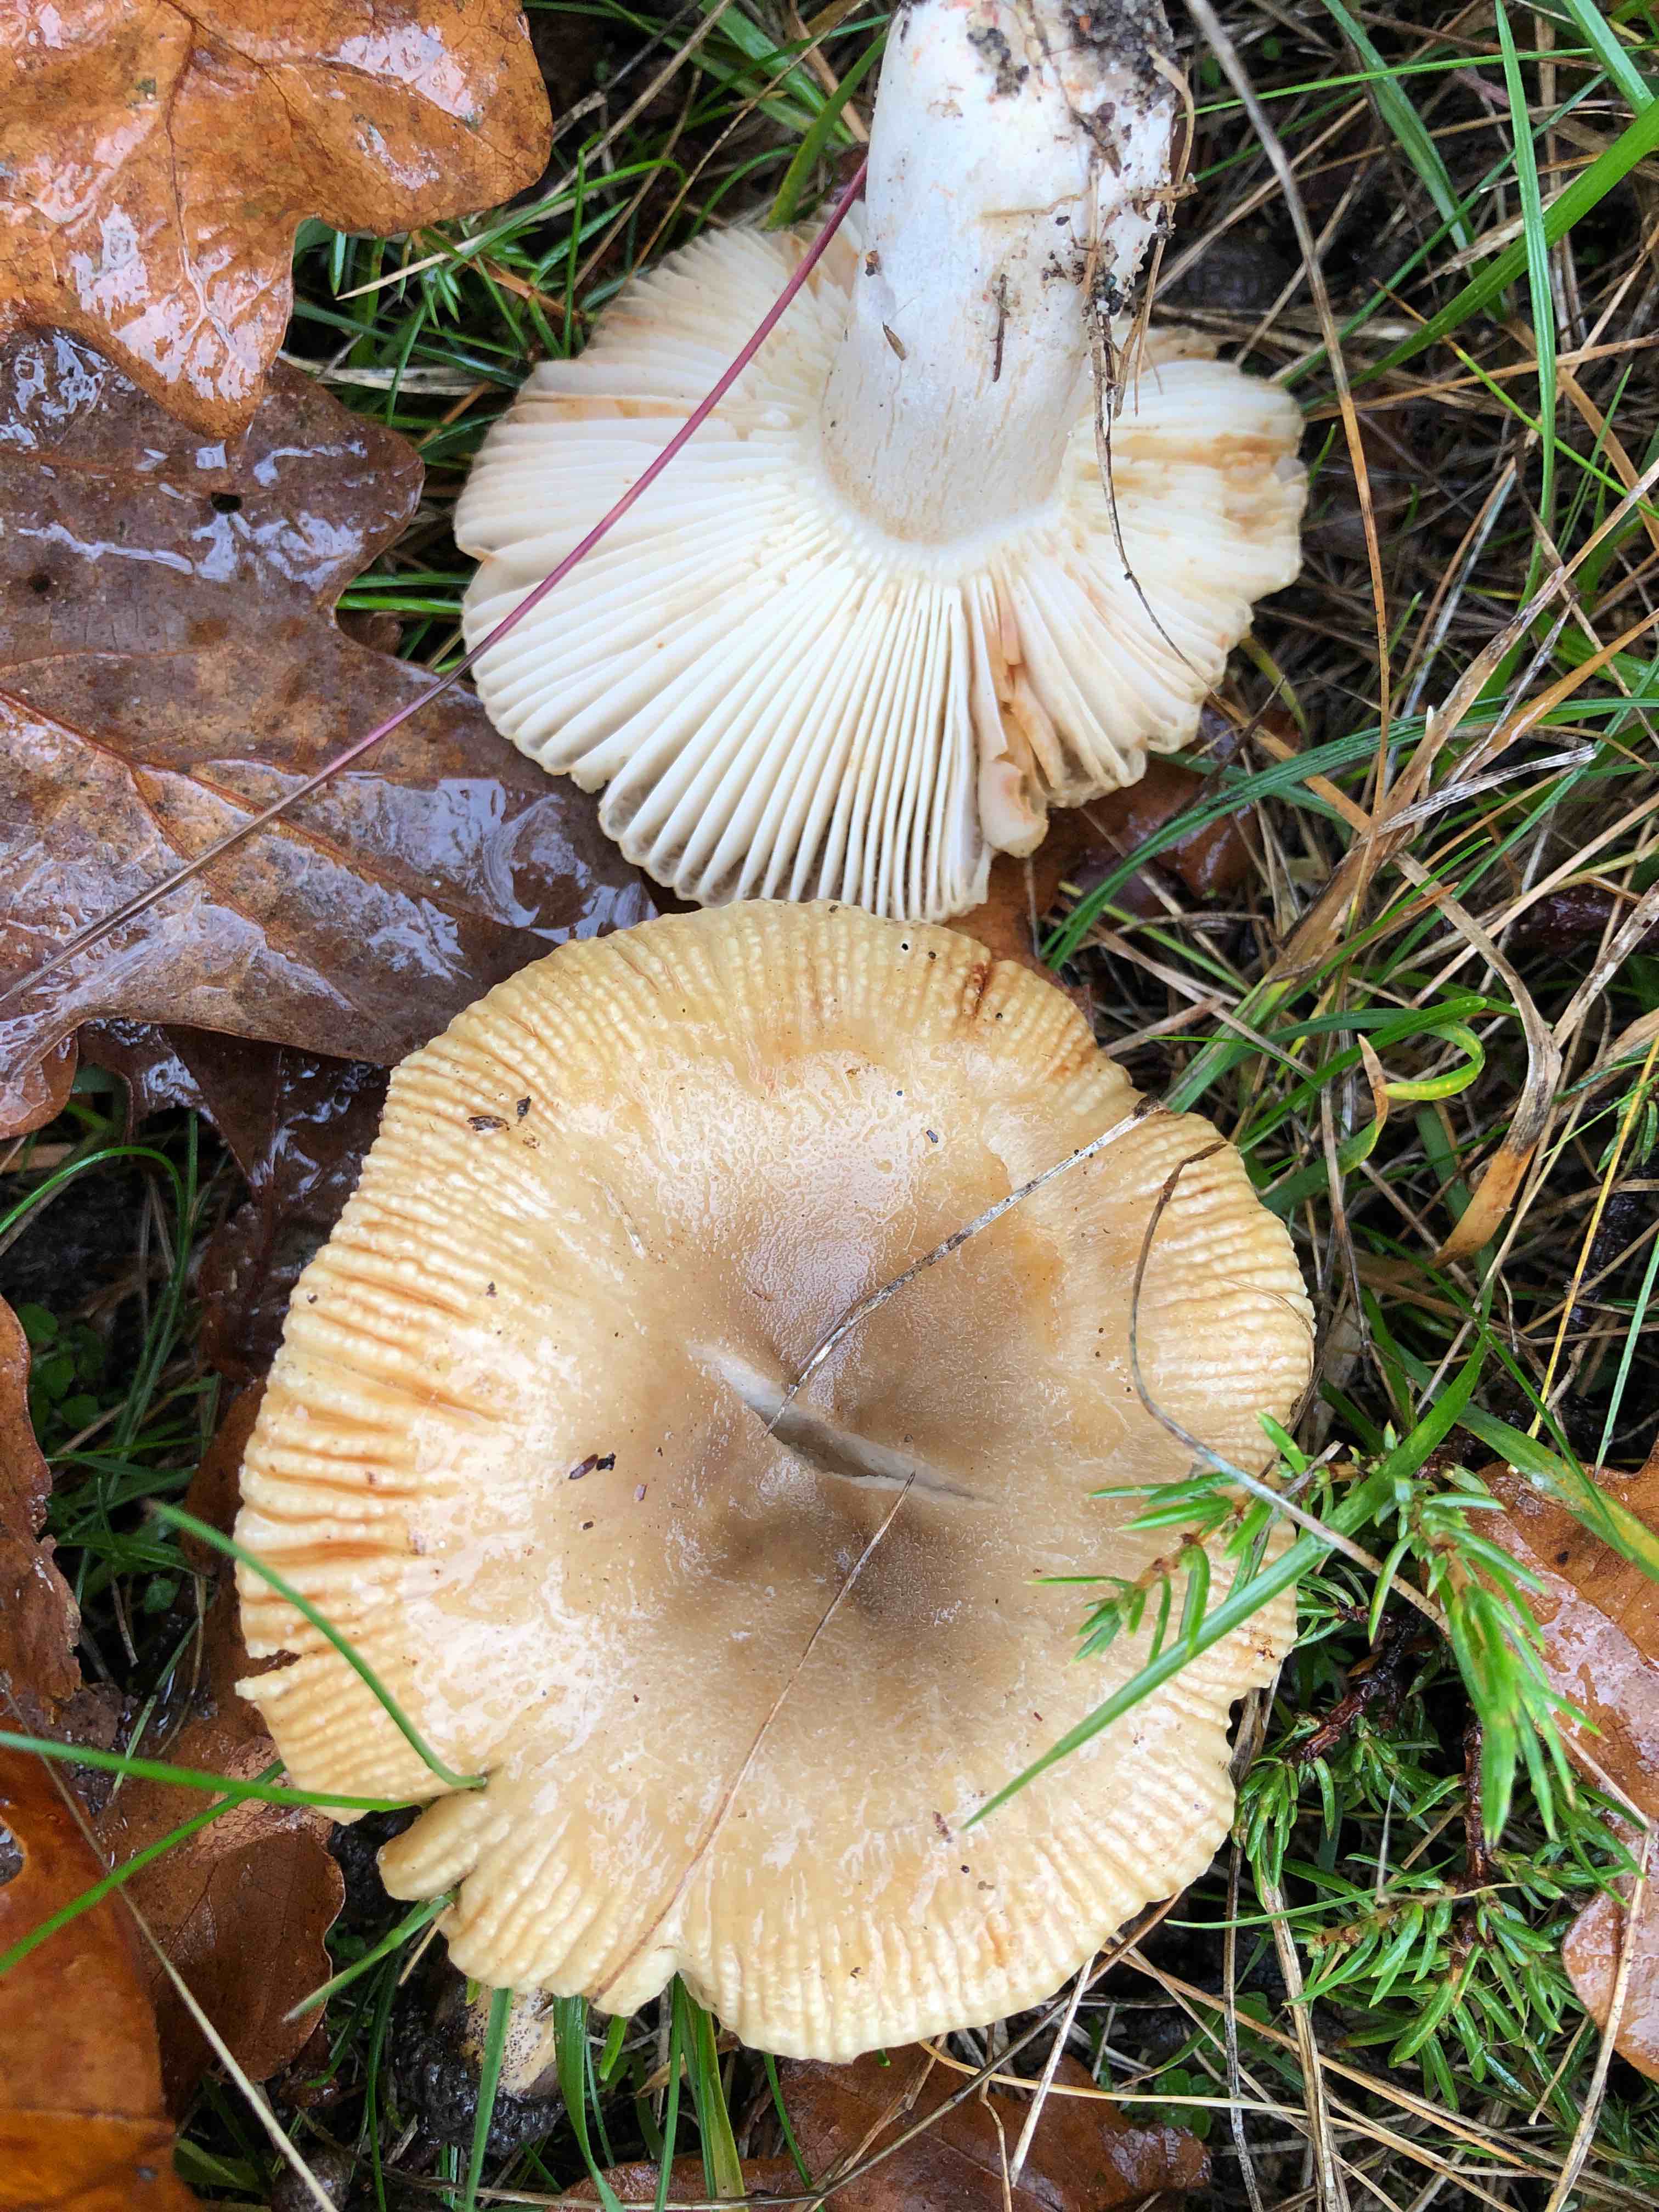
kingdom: Fungi
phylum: Basidiomycota
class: Agaricomycetes
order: Russulales
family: Russulaceae
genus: Russula
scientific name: Russula recondita
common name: mild kam-skørhat
